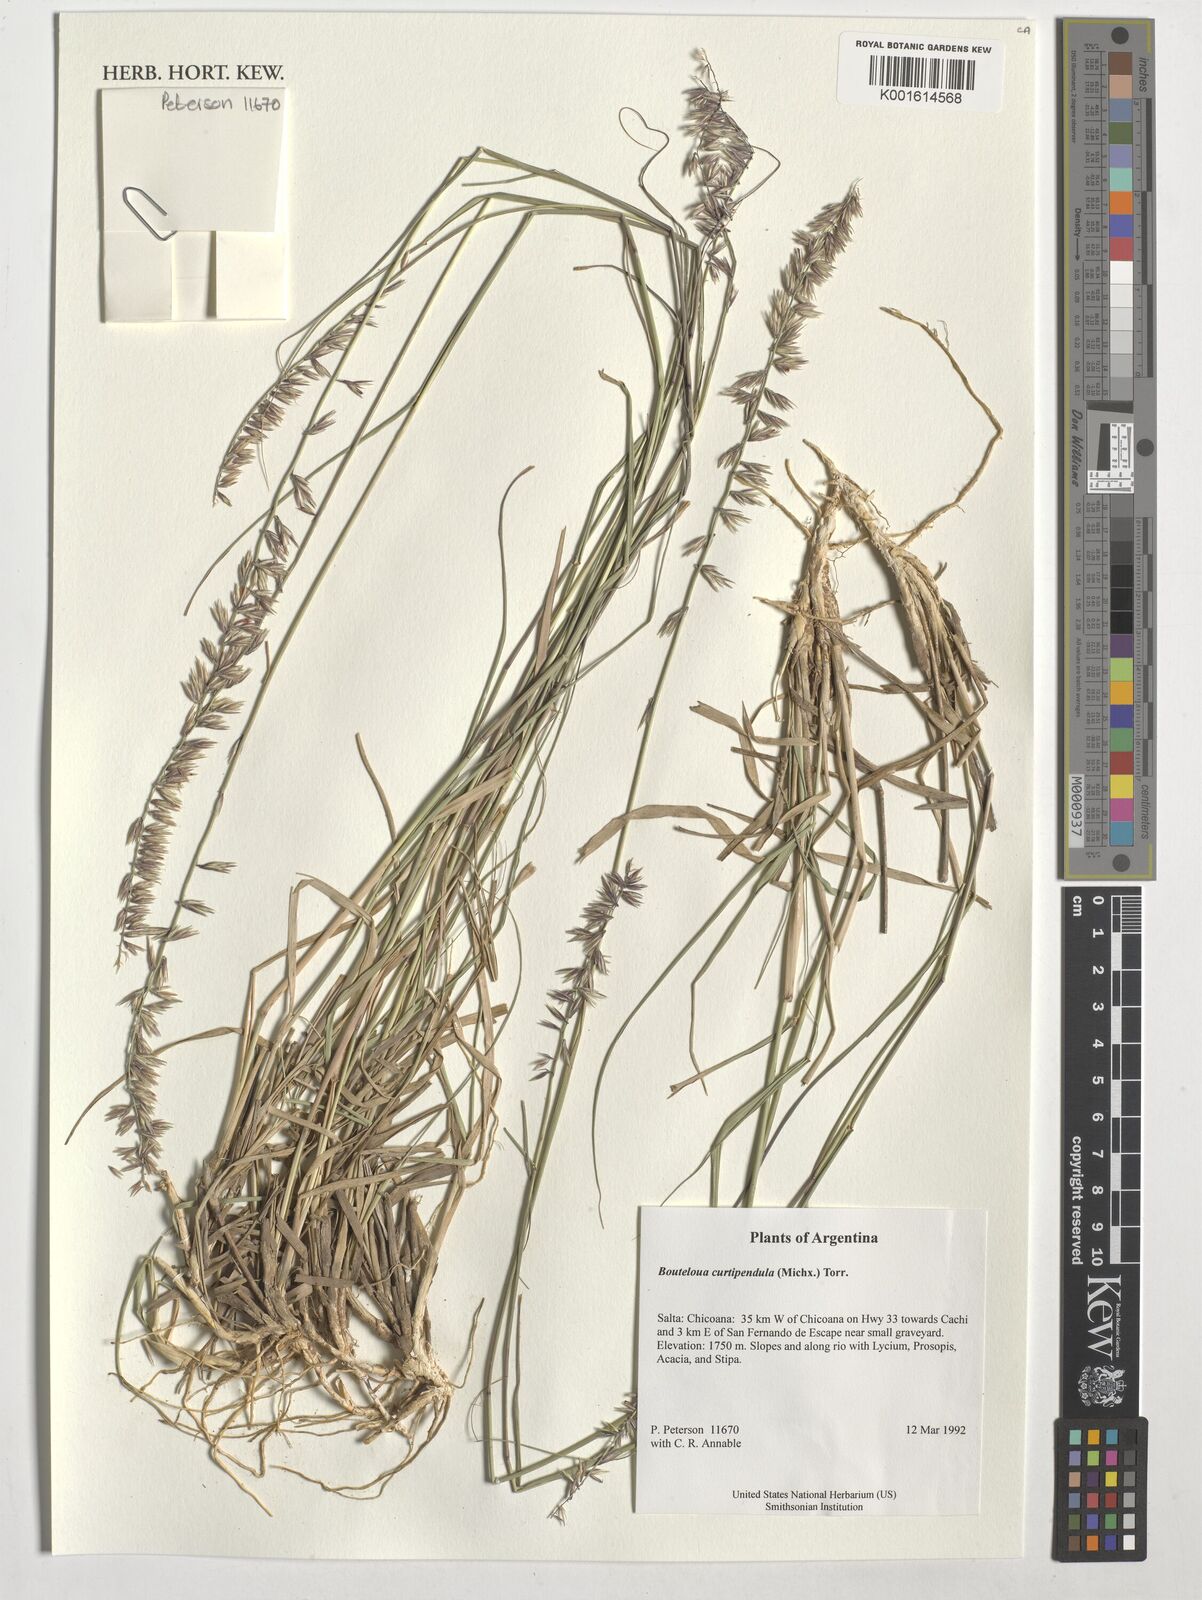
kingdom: Plantae
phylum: Tracheophyta
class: Liliopsida
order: Poales
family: Poaceae
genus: Bouteloua
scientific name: Bouteloua curtipendula
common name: Side-oats grama
